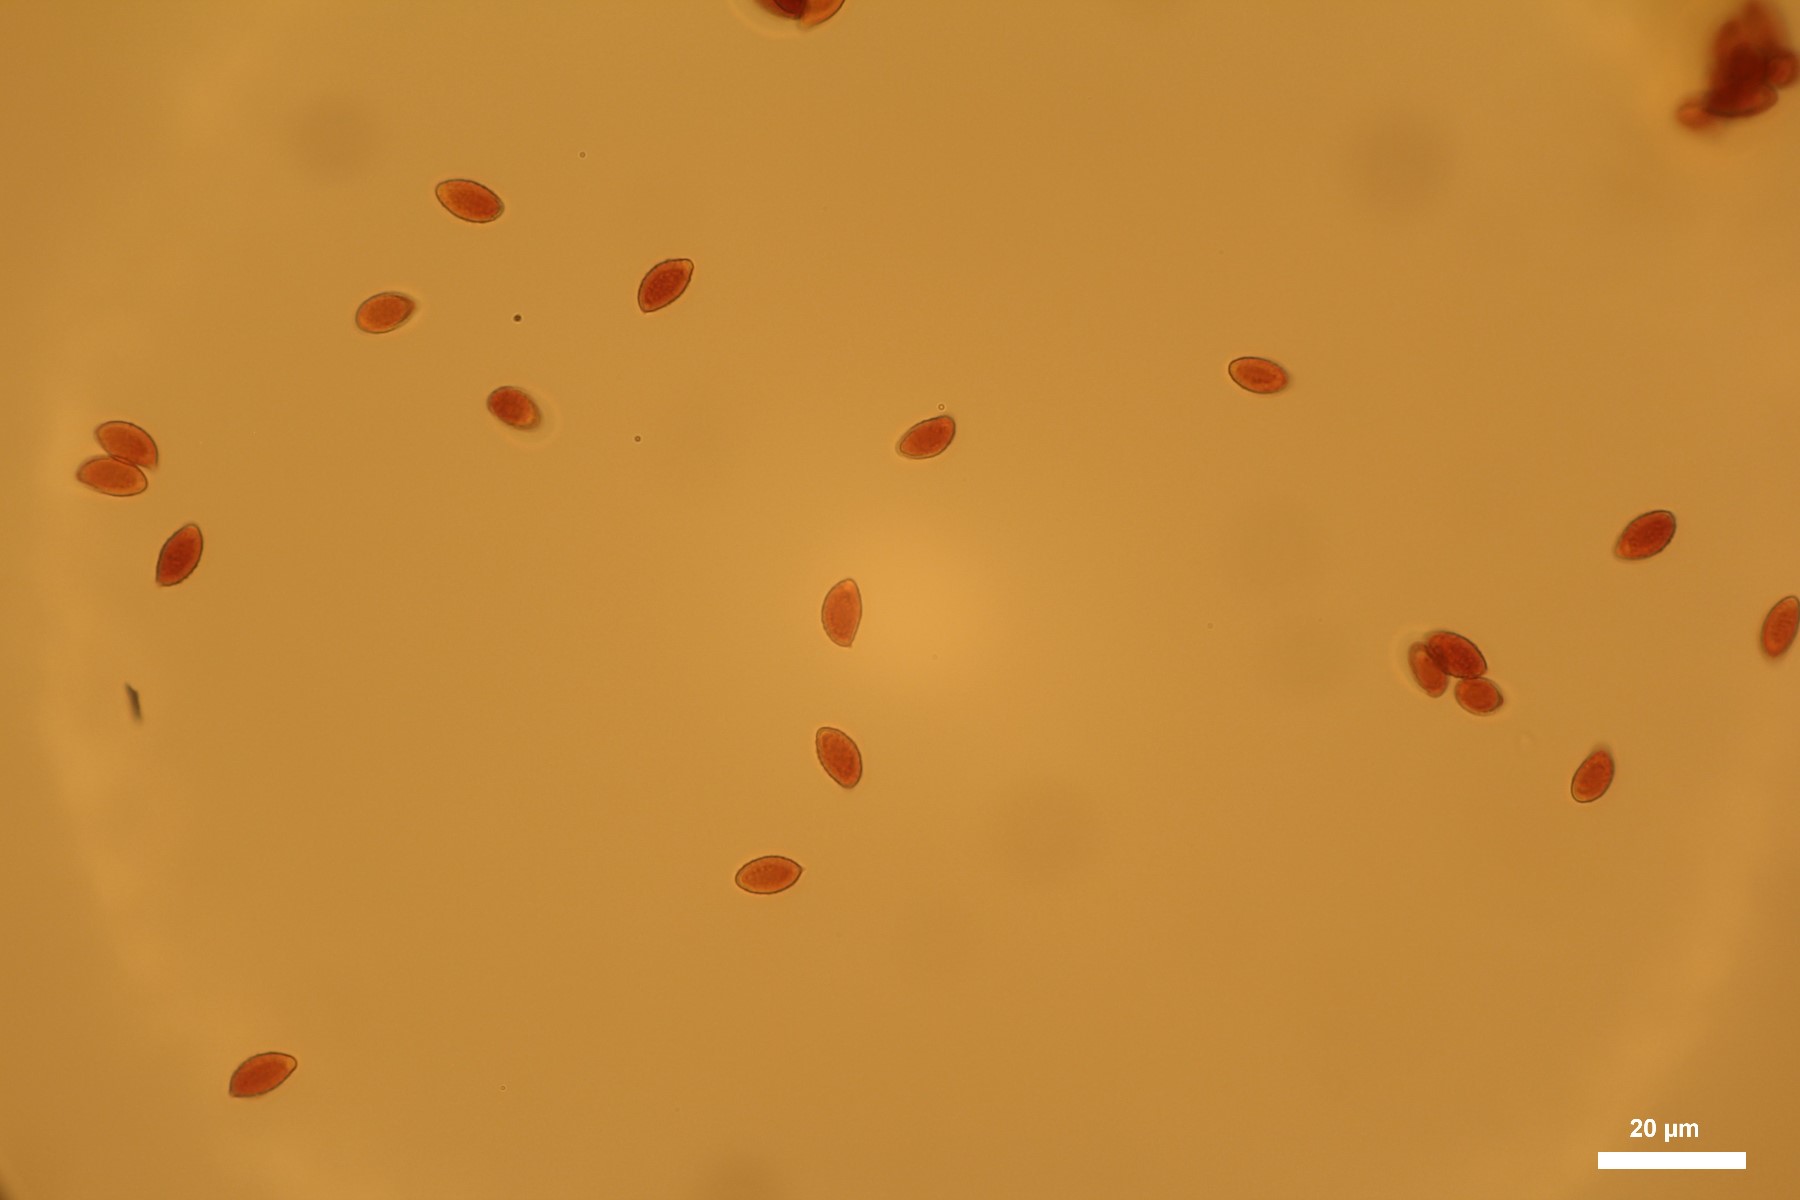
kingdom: Fungi
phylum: Basidiomycota
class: Agaricomycetes
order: Agaricales
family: Cortinariaceae
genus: Cortinarius
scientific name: Cortinarius caerulescens
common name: blåkødet slørhat
